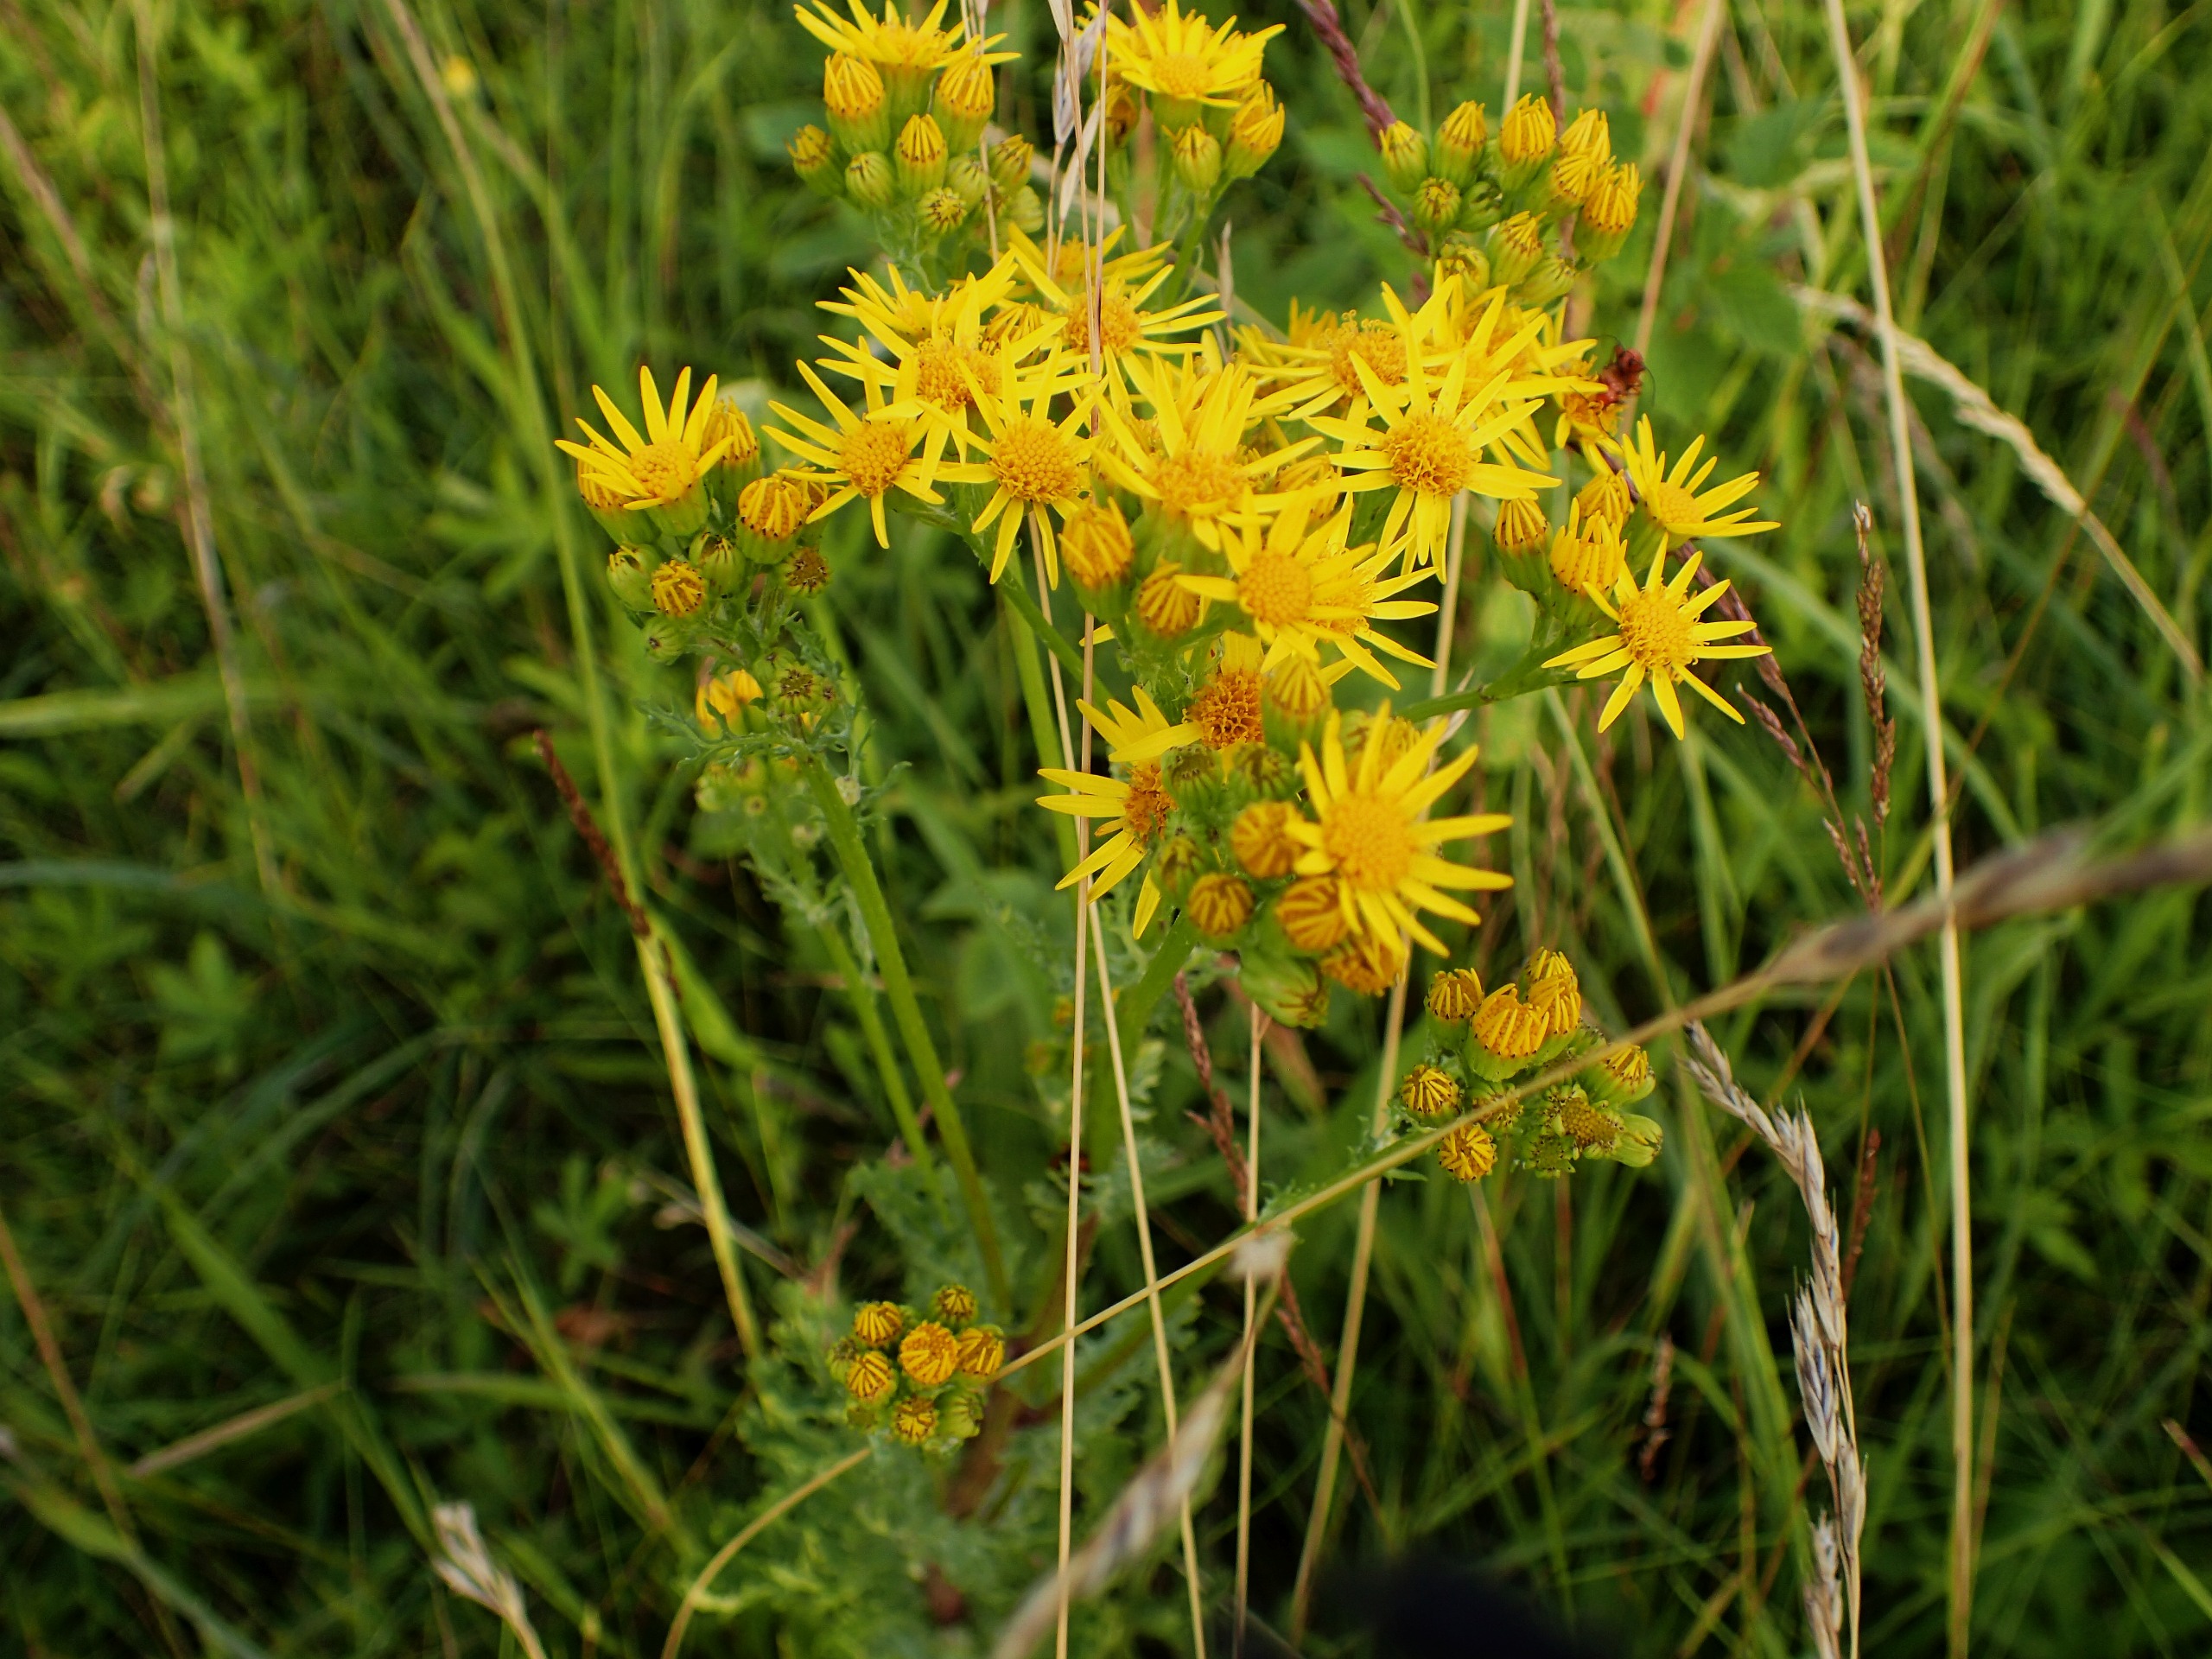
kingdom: Plantae
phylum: Tracheophyta
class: Magnoliopsida
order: Asterales
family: Asteraceae
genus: Jacobaea
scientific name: Jacobaea vulgaris
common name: Eng-brandbæger
